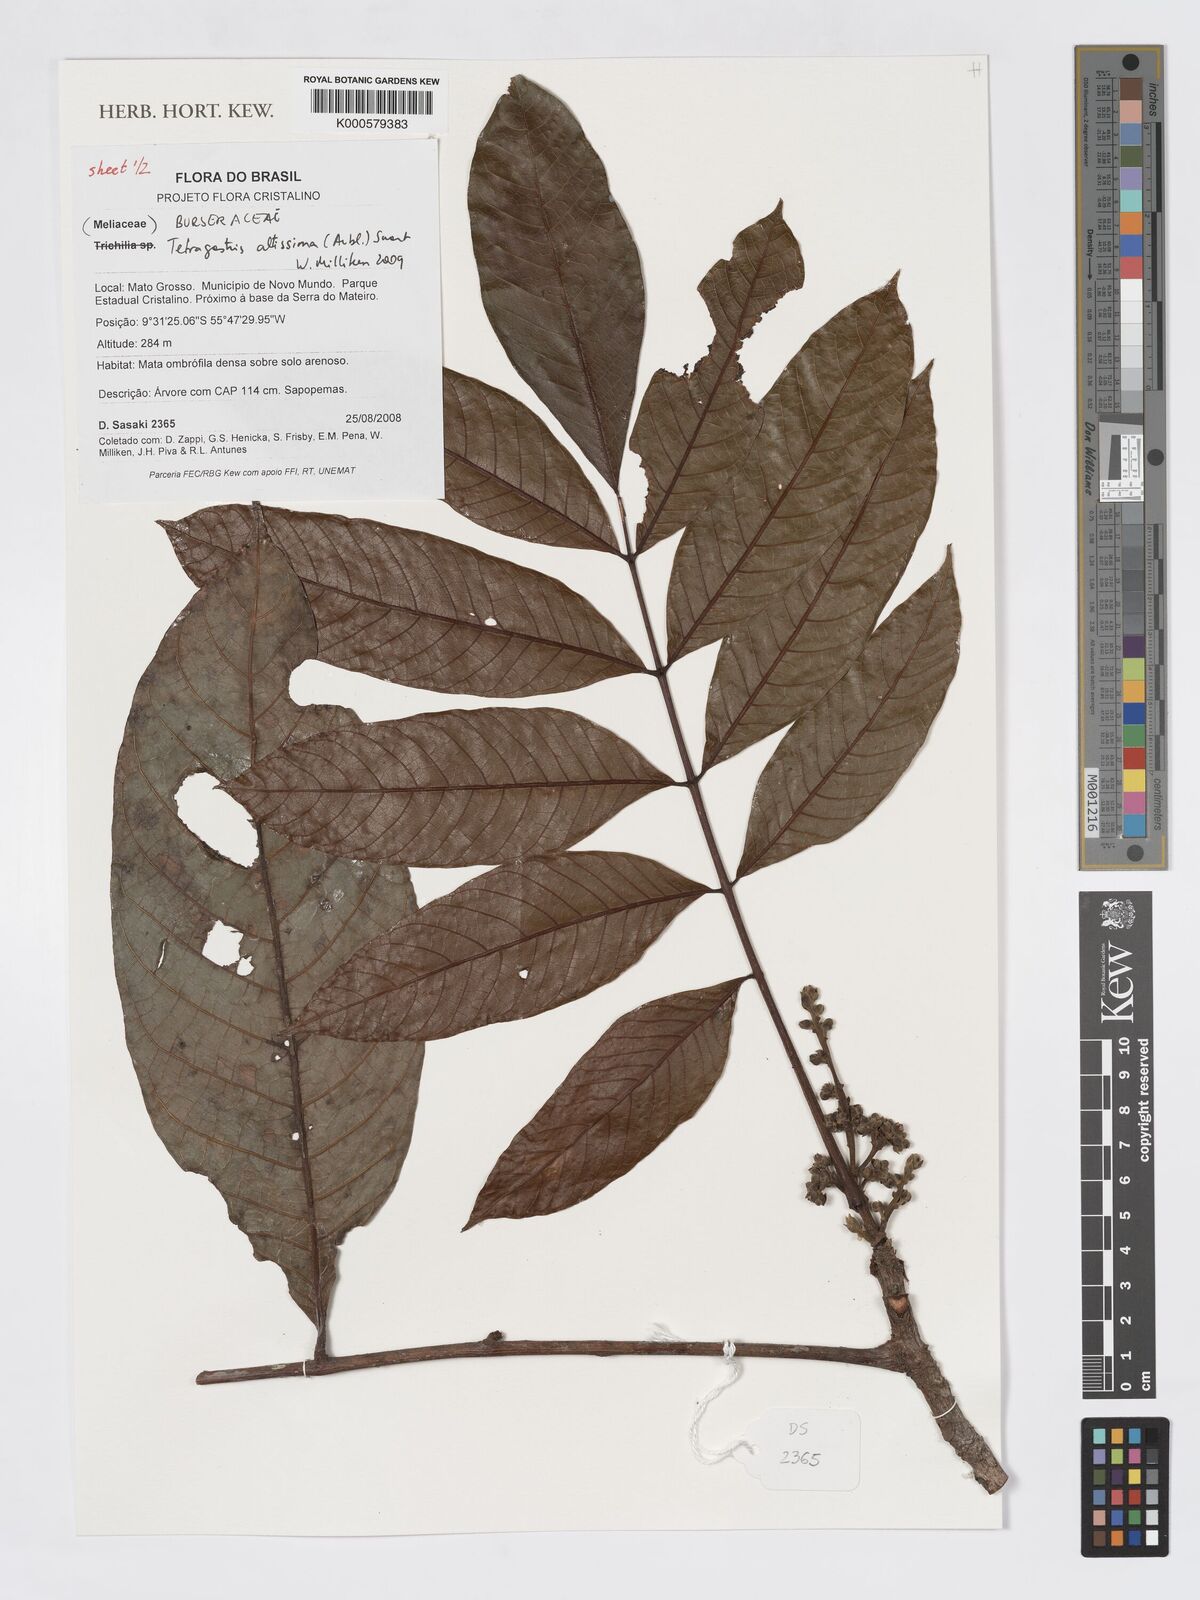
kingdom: Plantae
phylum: Tracheophyta
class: Magnoliopsida
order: Sapindales
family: Burseraceae
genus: Tetragastris
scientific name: Tetragastris altissima
